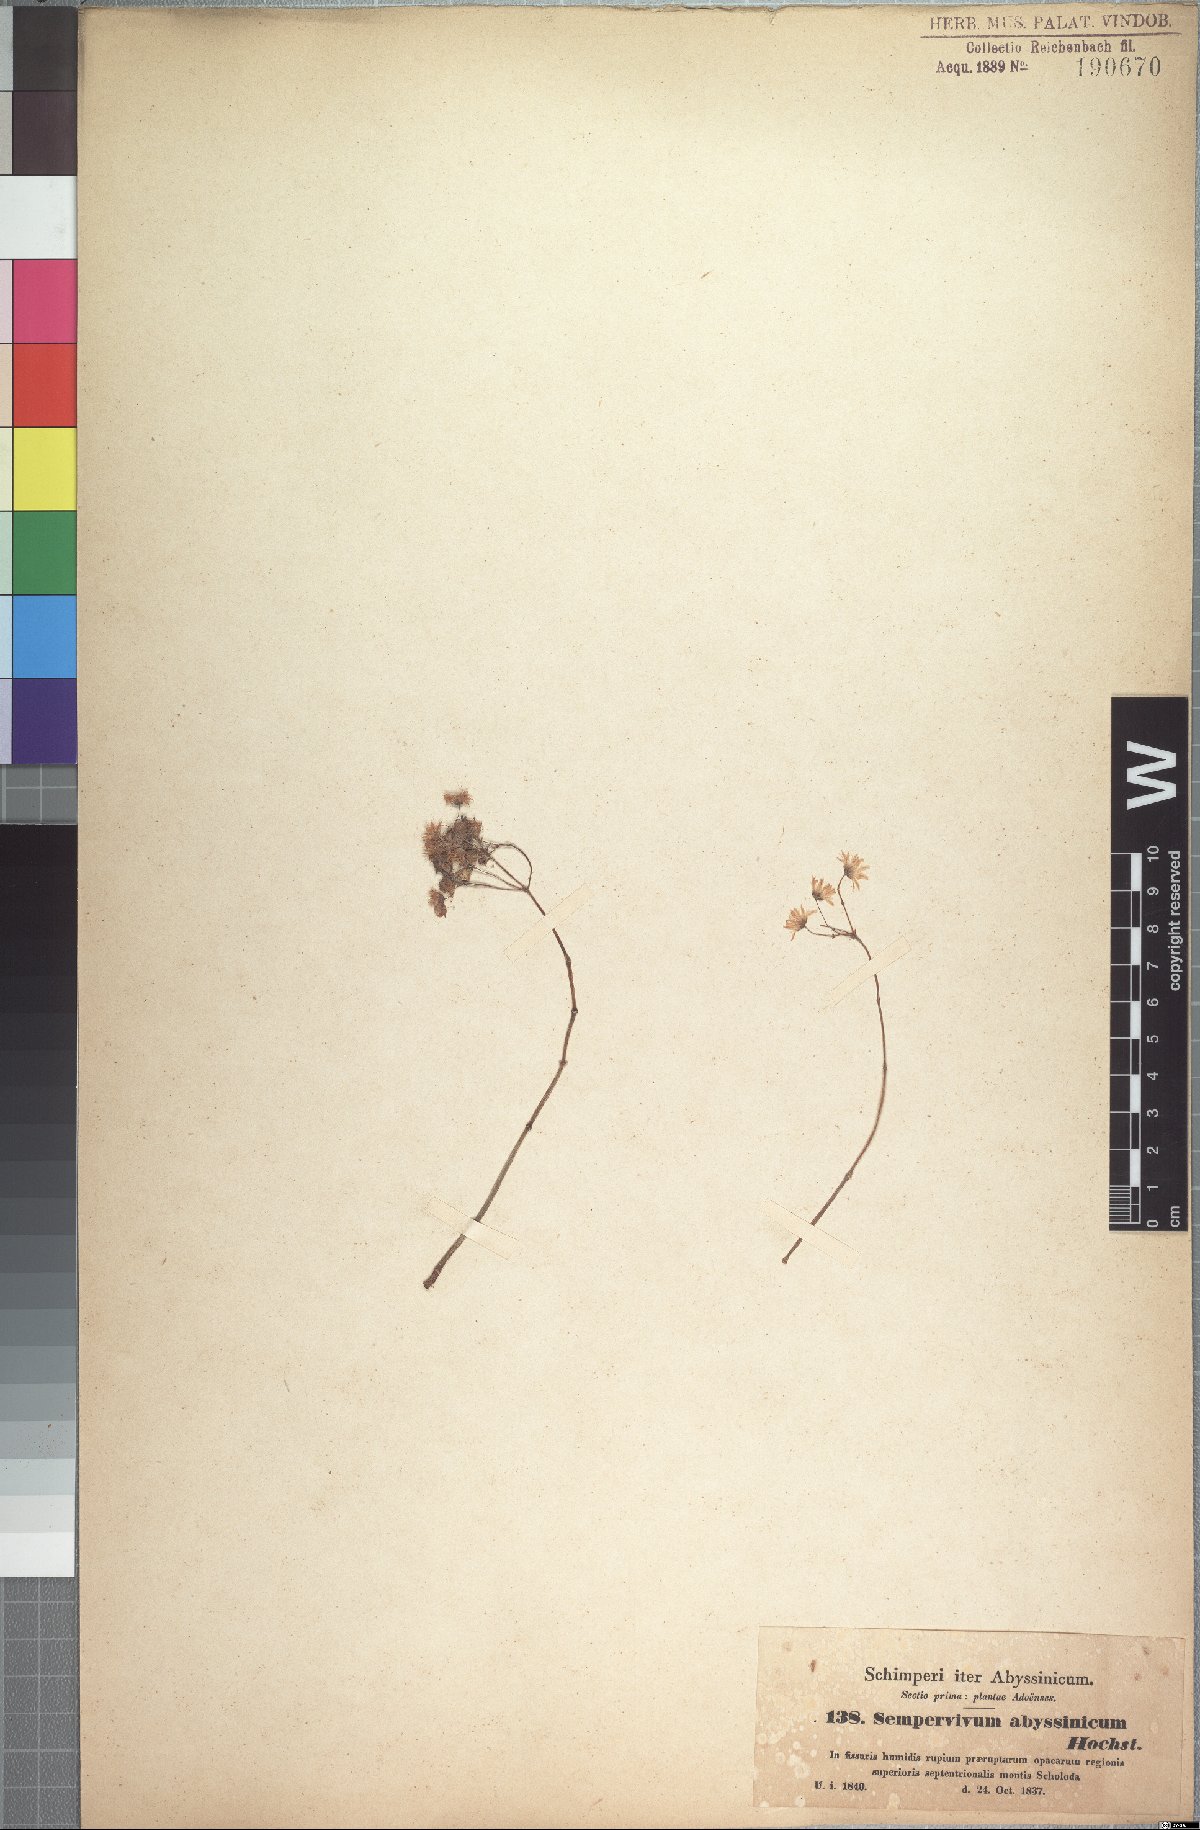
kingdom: Plantae
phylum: Tracheophyta
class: Magnoliopsida
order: Saxifragales
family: Crassulaceae
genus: Hypagophytum
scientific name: Hypagophytum abyssinicum
